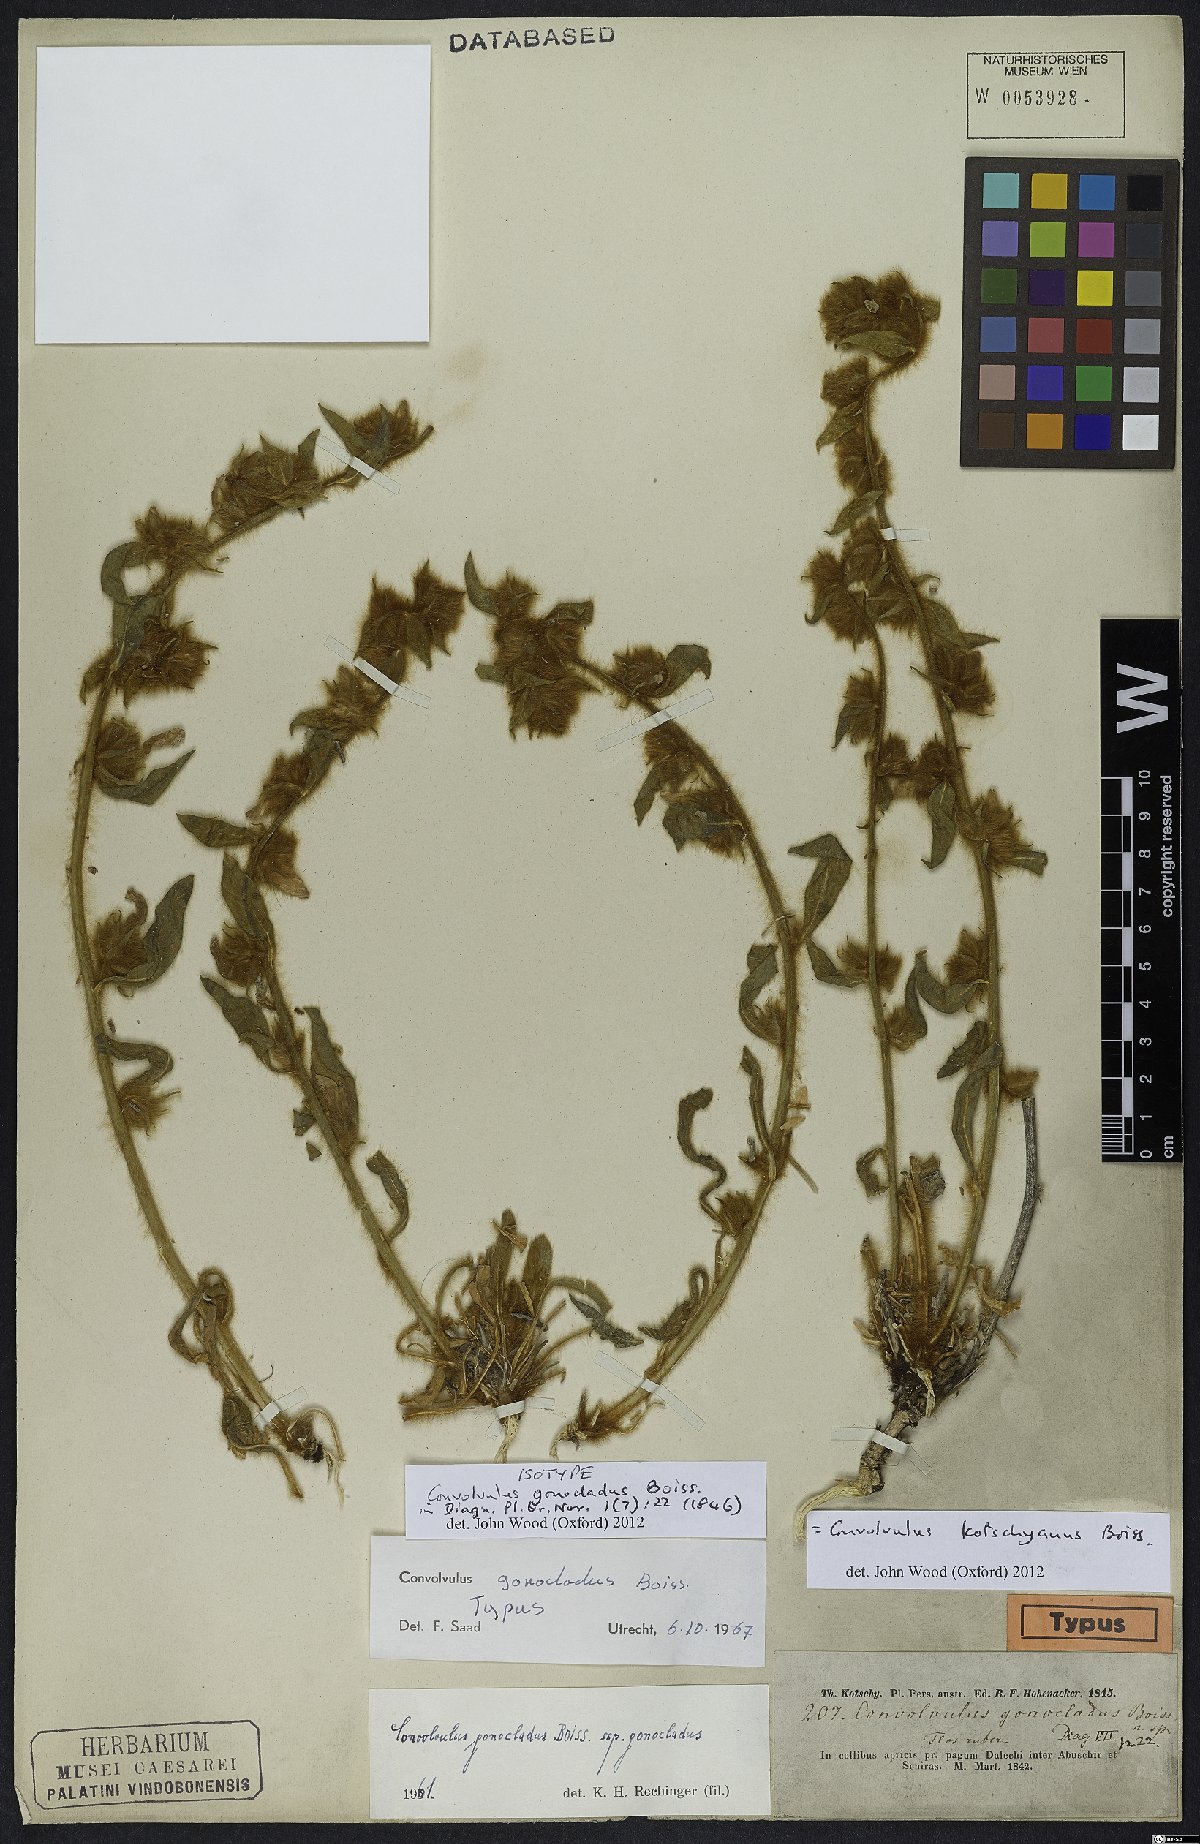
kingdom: Plantae
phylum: Tracheophyta
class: Magnoliopsida
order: Solanales
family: Convolvulaceae
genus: Convolvulus
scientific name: Convolvulus kotschyanus
